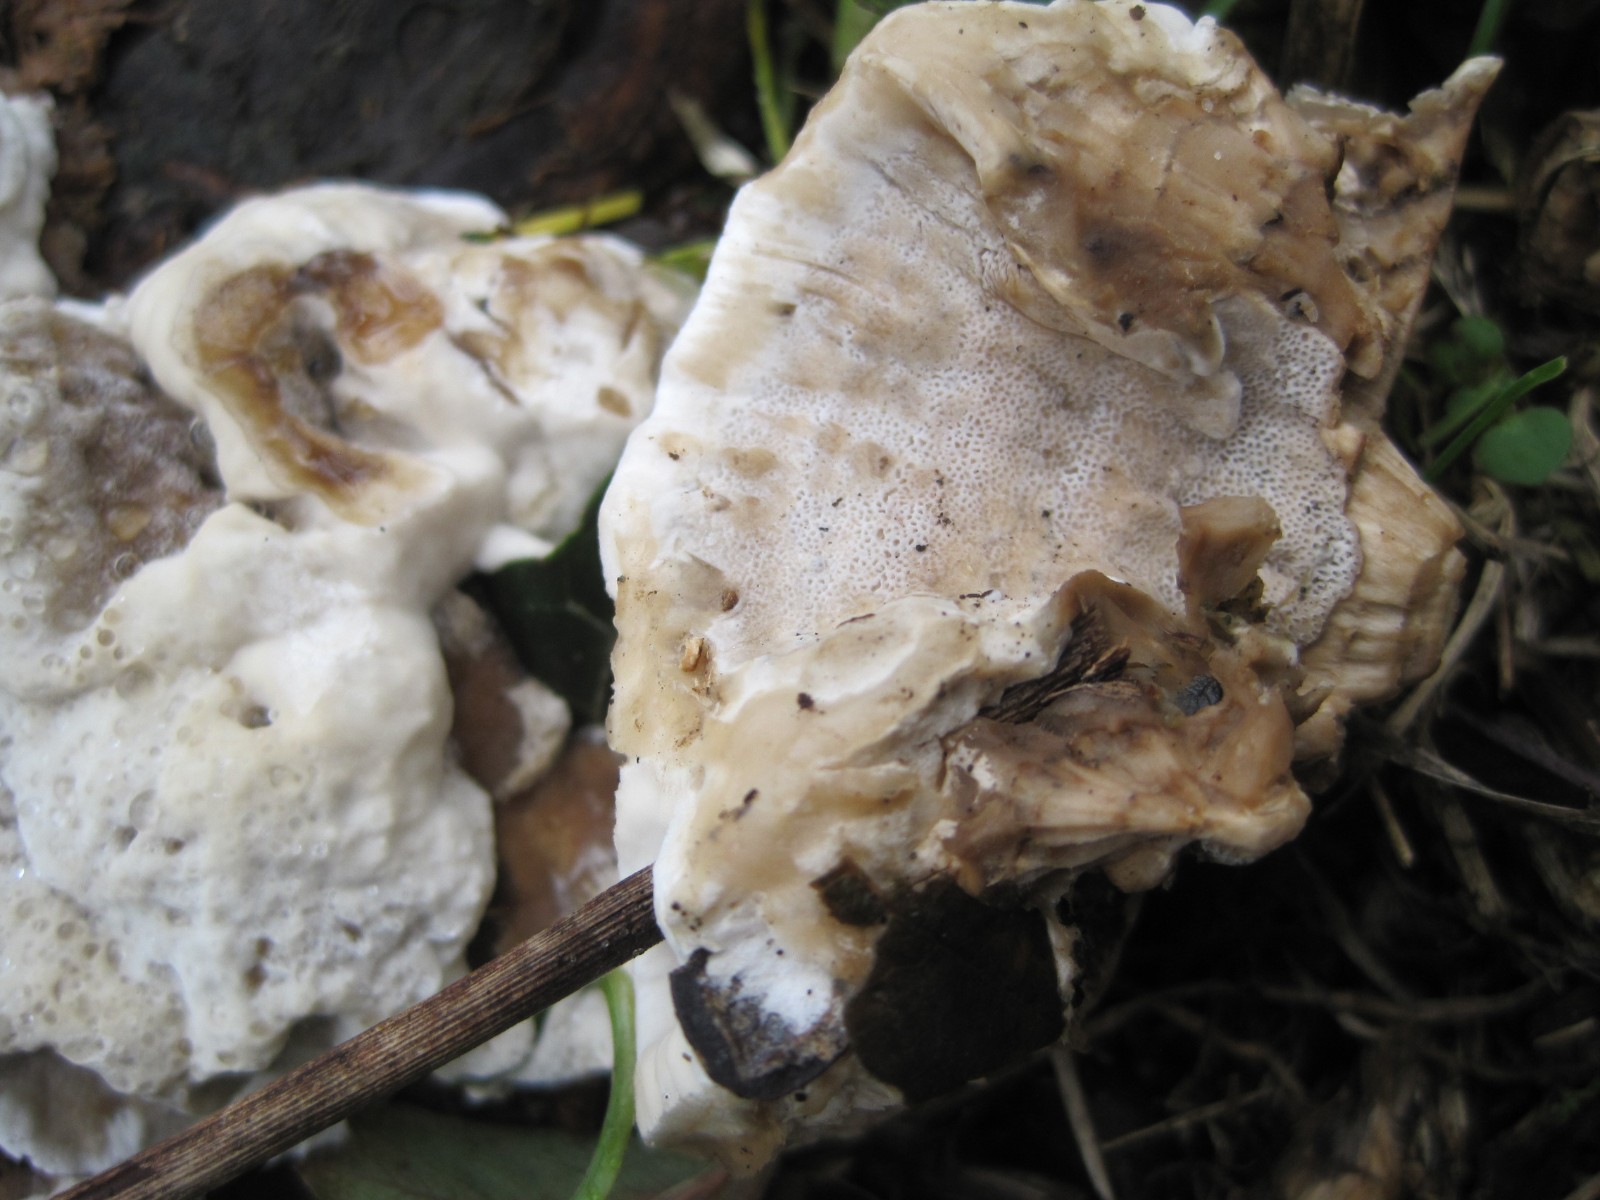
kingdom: Fungi
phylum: Basidiomycota
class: Agaricomycetes
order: Polyporales
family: Phanerochaetaceae
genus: Bjerkandera
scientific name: Bjerkandera fumosa
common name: grågul sodporesvamp
